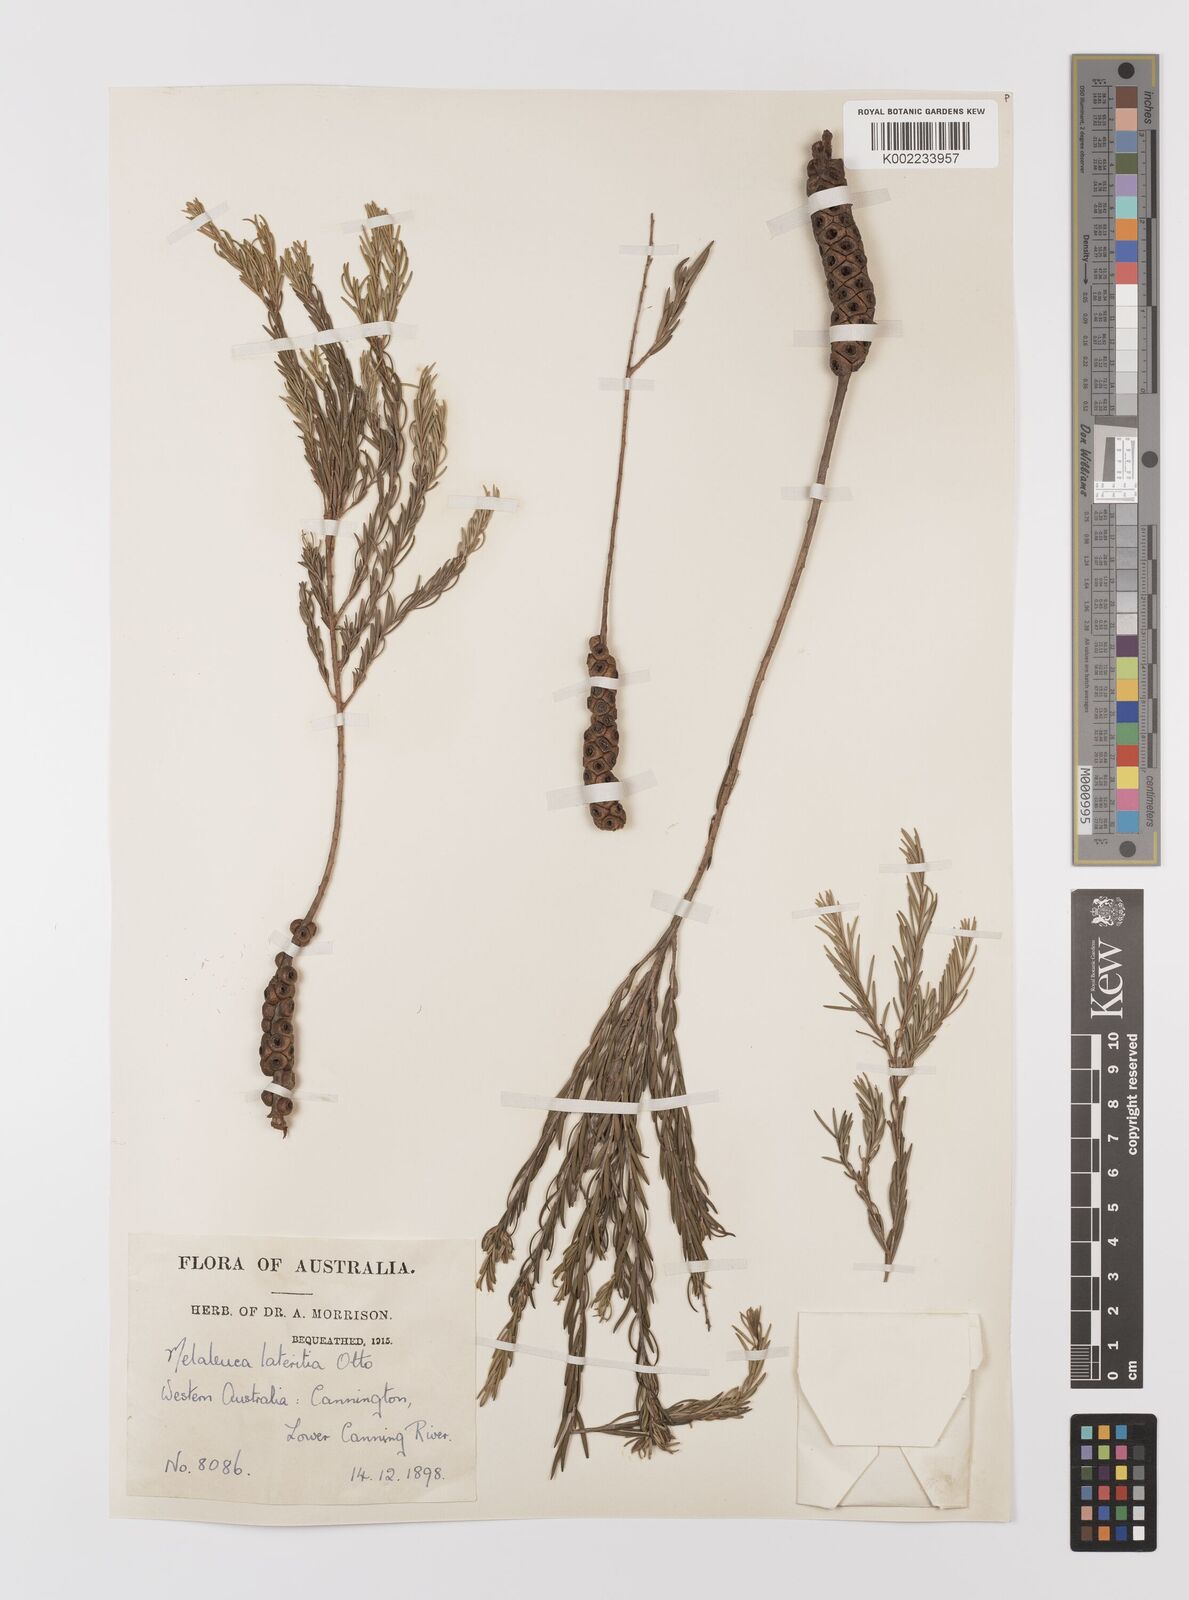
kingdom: Plantae
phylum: Tracheophyta
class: Magnoliopsida
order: Myrtales
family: Myrtaceae
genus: Melaleuca
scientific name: Melaleuca lateritia
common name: Robin red-breast
